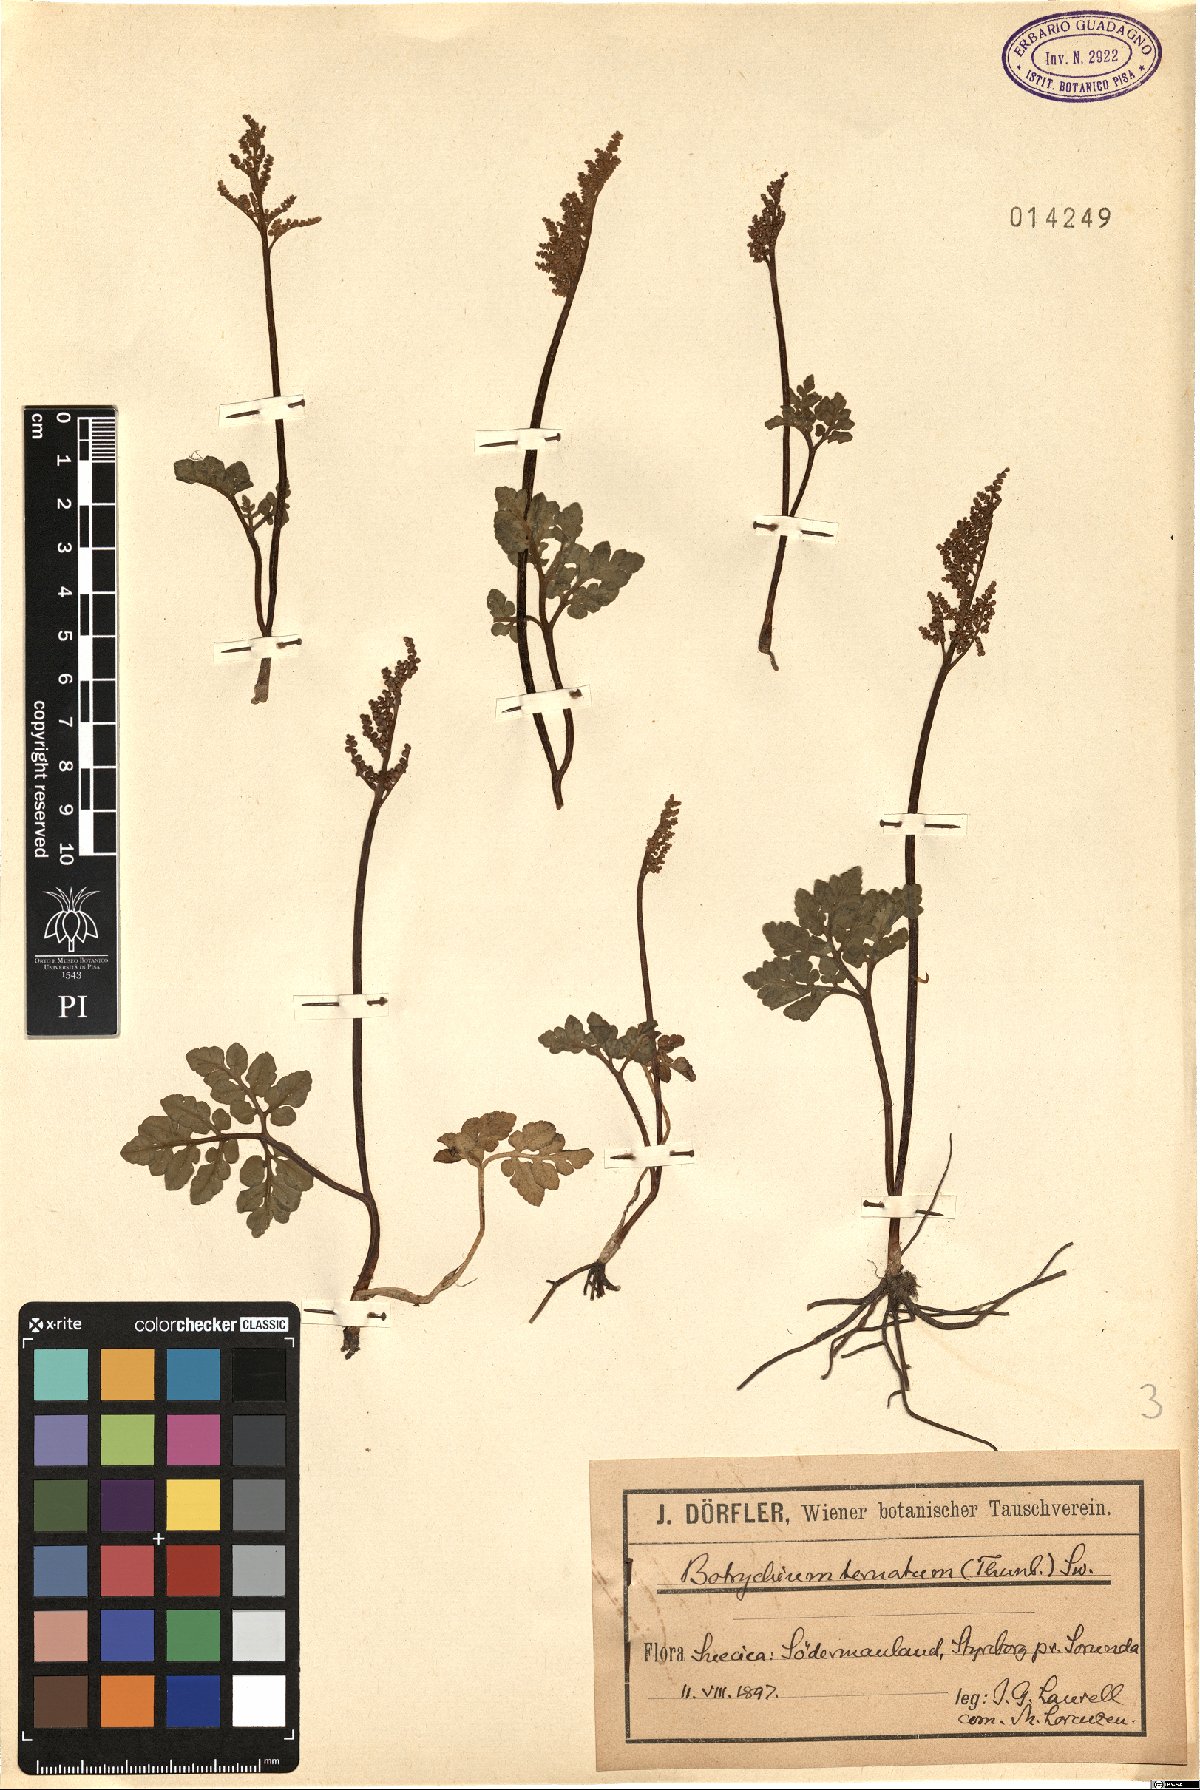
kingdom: Plantae
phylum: Tracheophyta
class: Polypodiopsida
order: Ophioglossales
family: Ophioglossaceae
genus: Sceptridium
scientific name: Sceptridium multifidum
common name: Leathery grape fern
